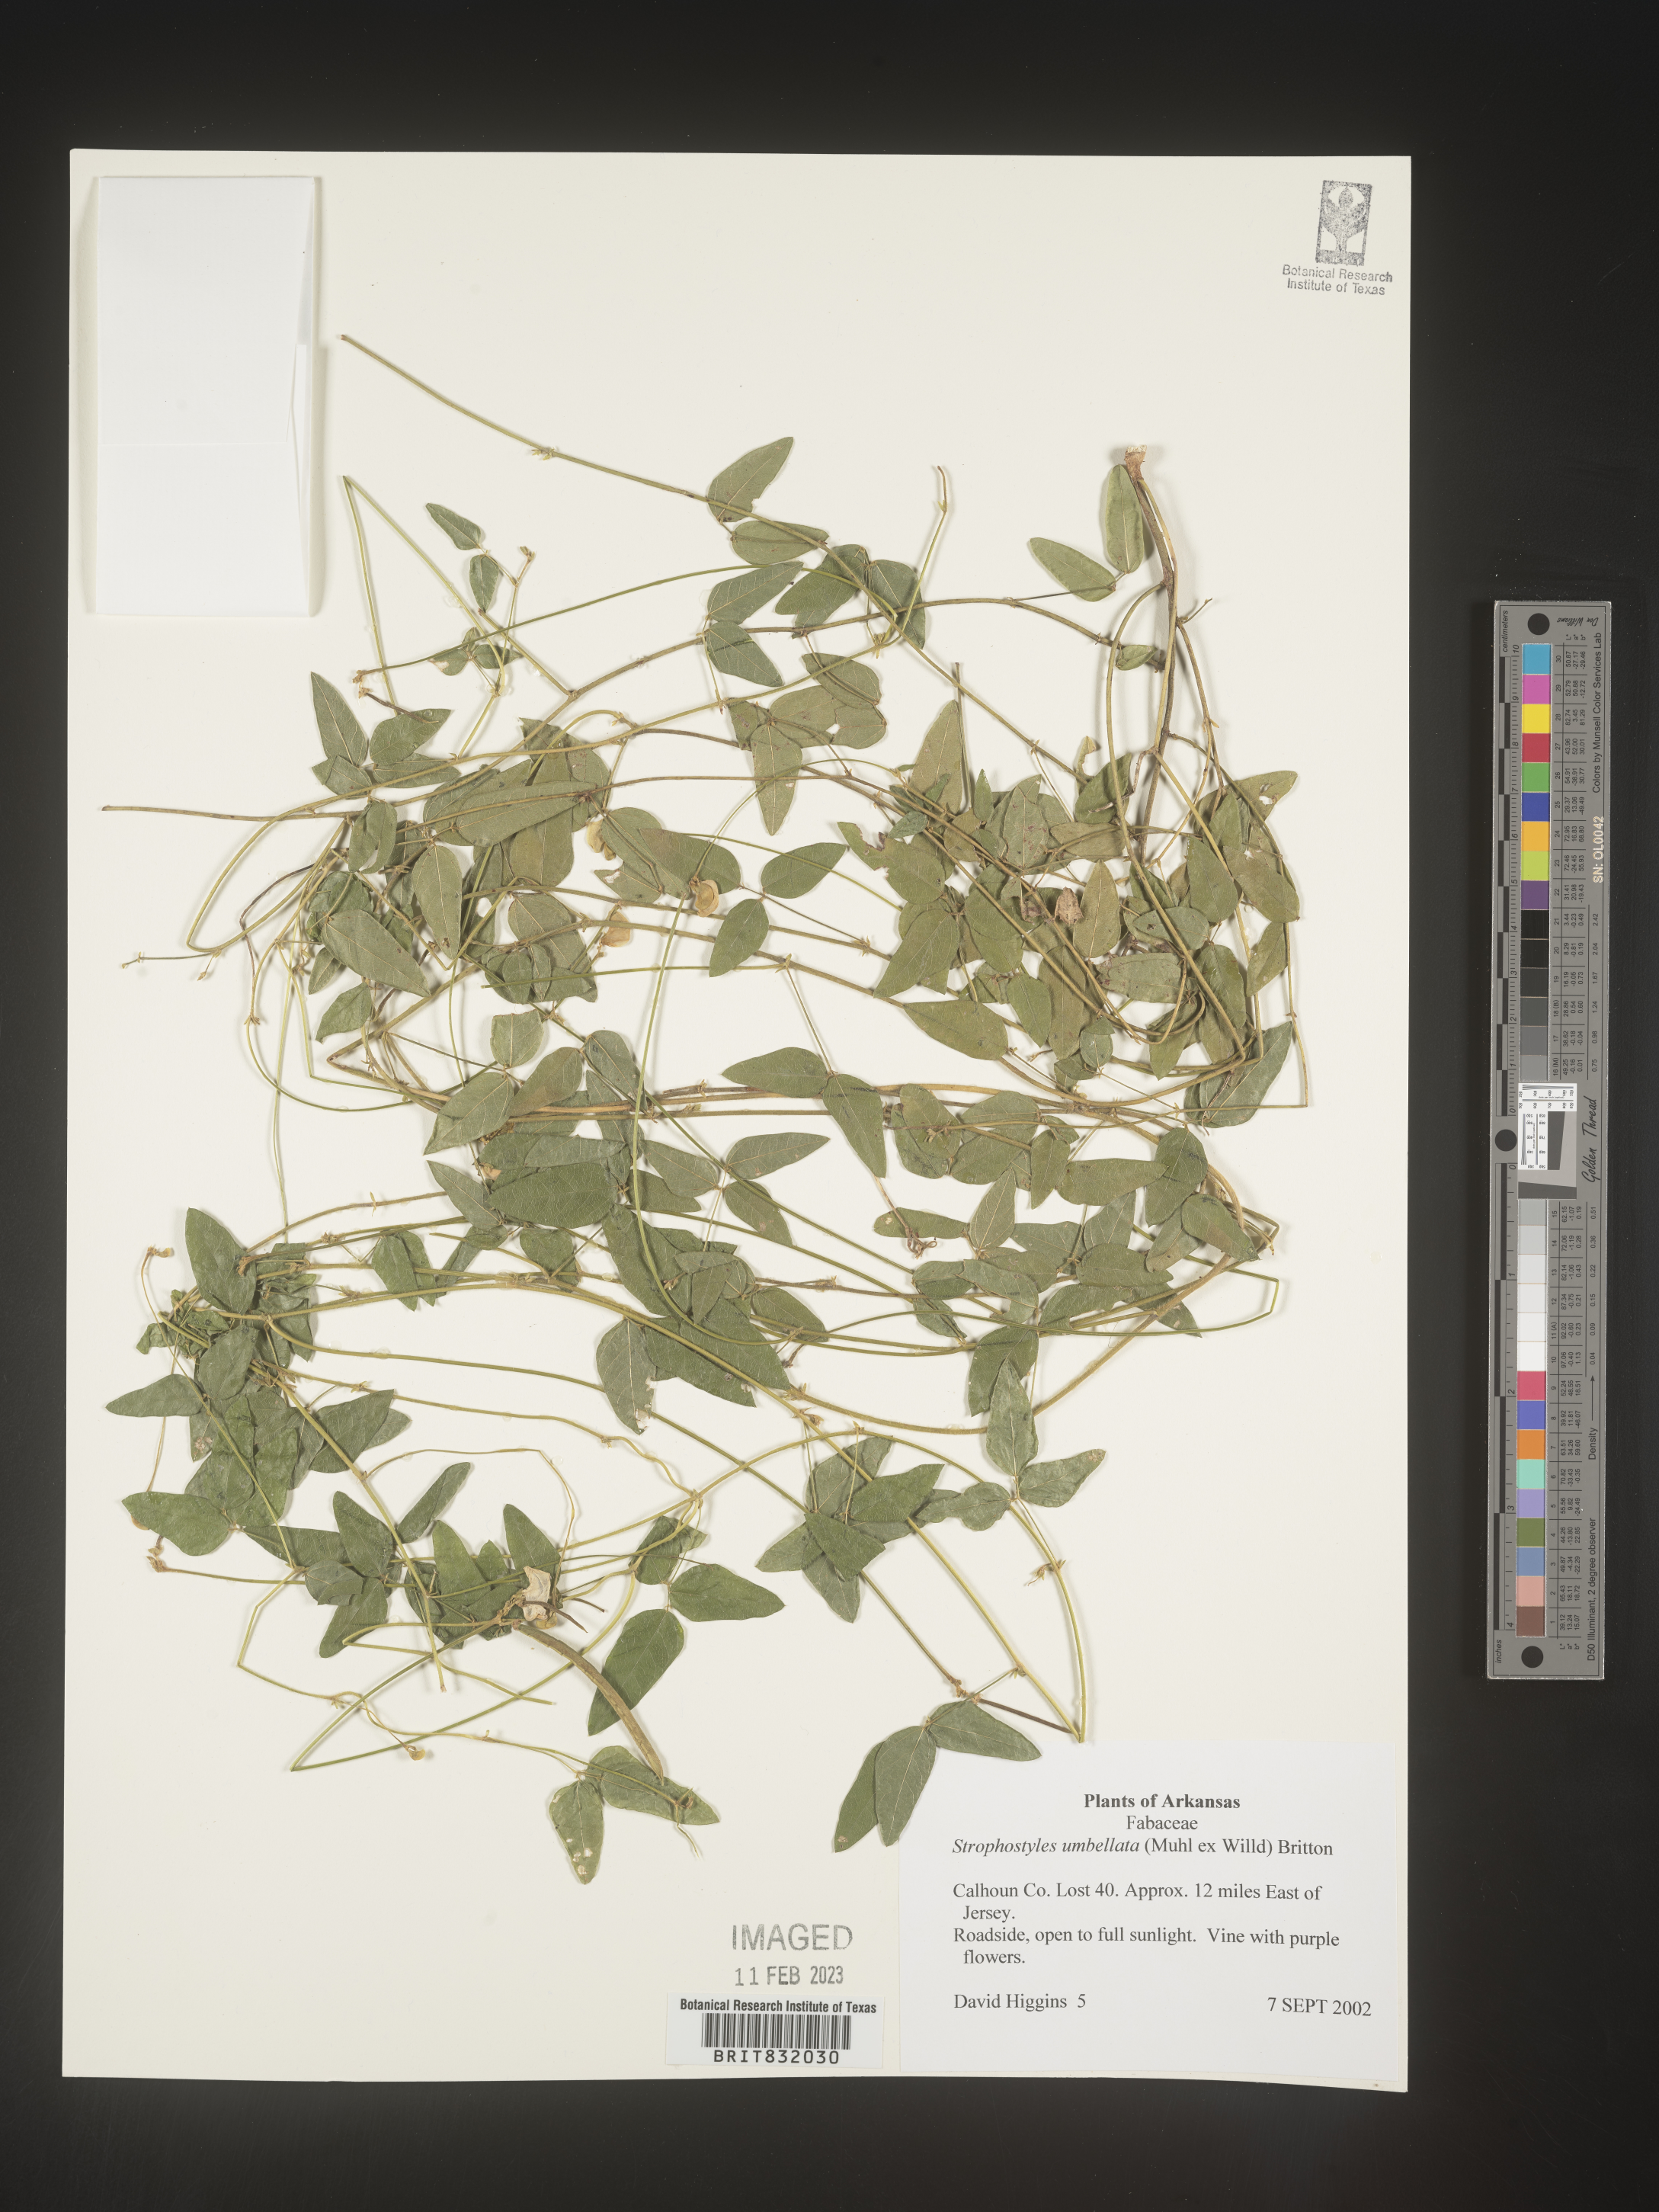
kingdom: Plantae
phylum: Tracheophyta
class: Magnoliopsida
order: Fabales
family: Fabaceae
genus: Strophostyles
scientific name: Strophostyles umbellata
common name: Perennial wild bean
